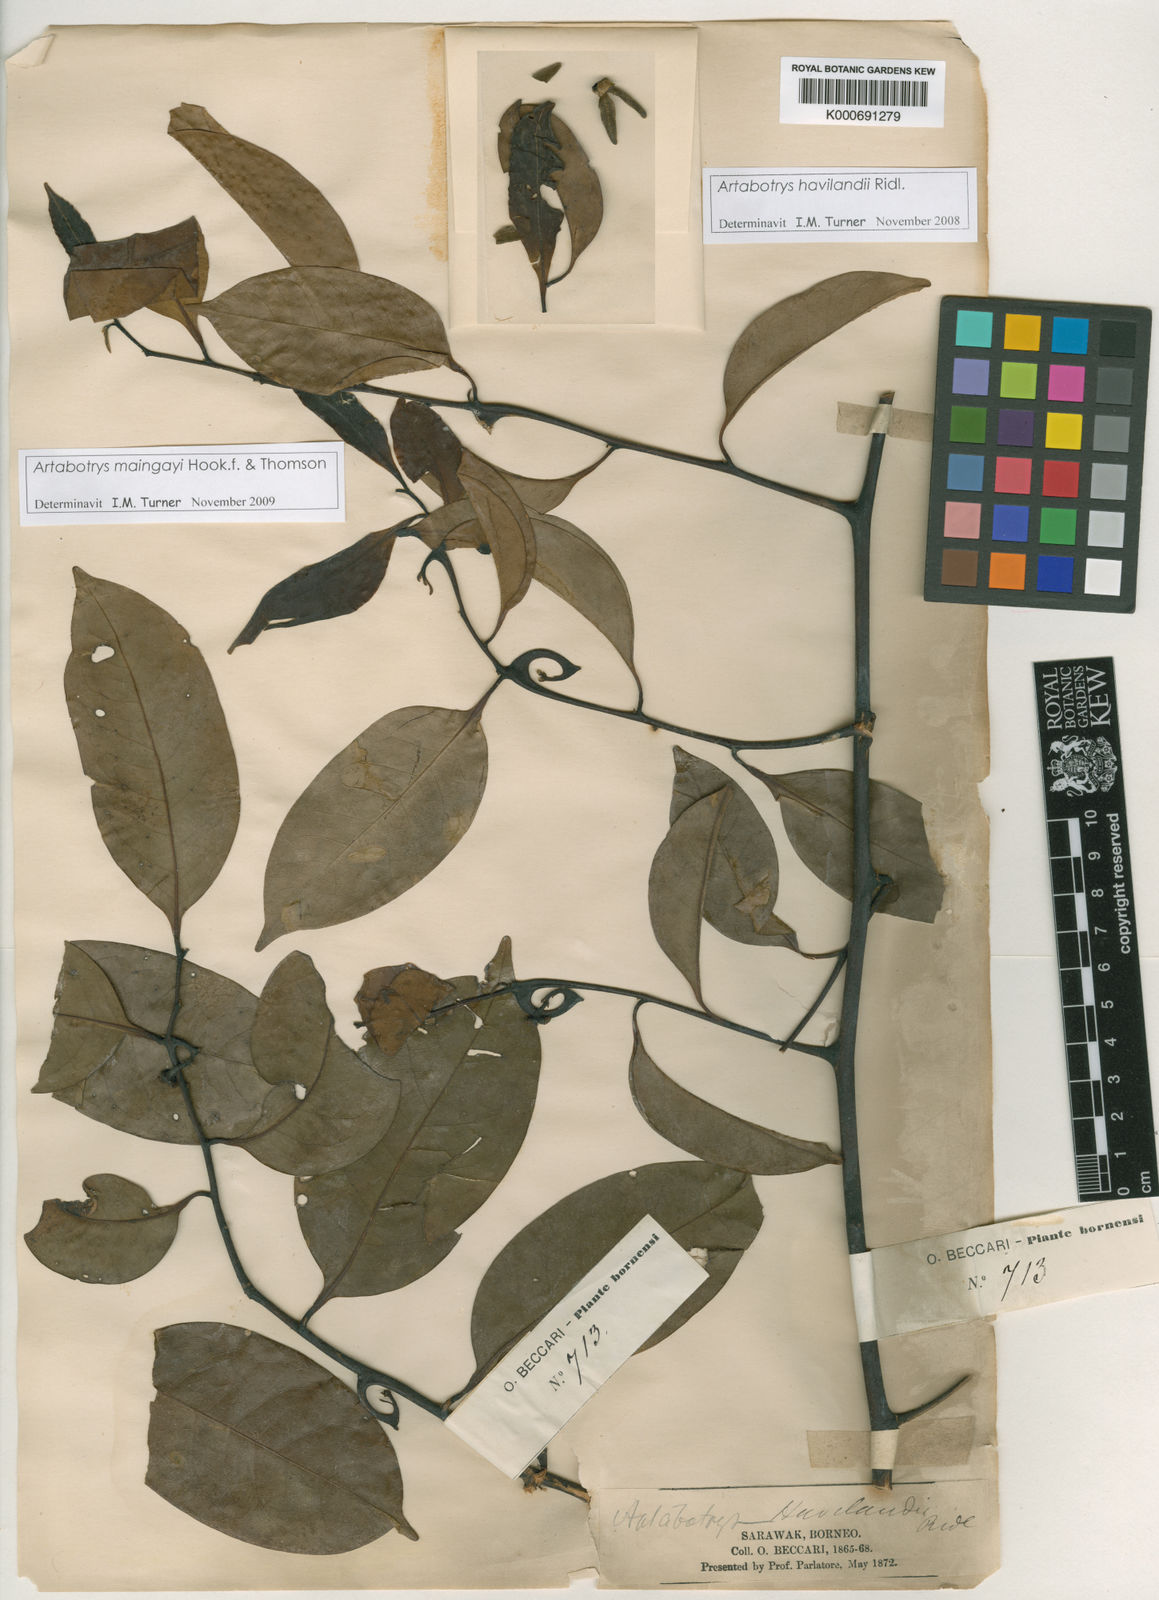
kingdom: Plantae
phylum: Tracheophyta
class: Magnoliopsida
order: Magnoliales
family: Annonaceae
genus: Artabotrys
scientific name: Artabotrys maingayi
